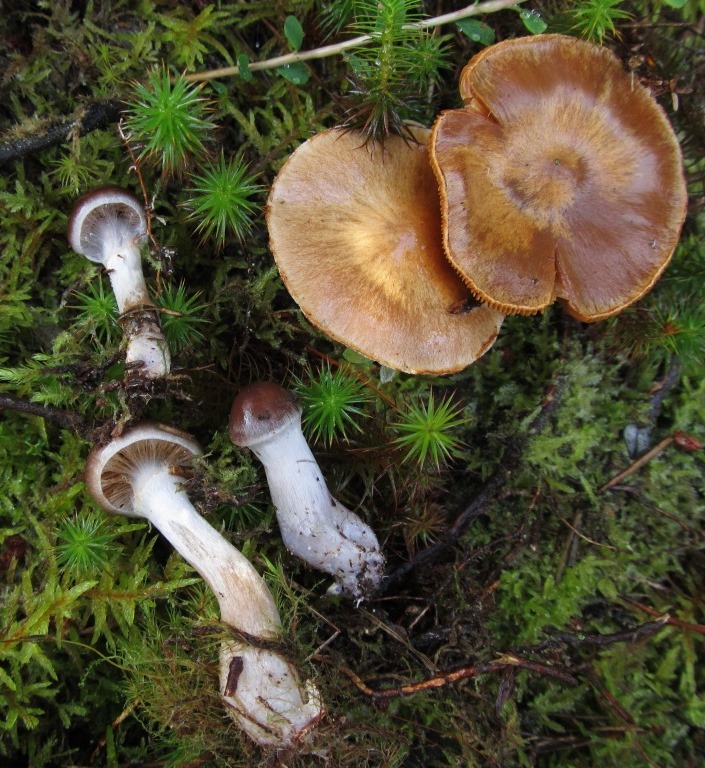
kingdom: Fungi
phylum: Basidiomycota
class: Agaricomycetes
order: Agaricales
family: Cortinariaceae
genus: Cortinarius
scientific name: Cortinarius kauffmanianus
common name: plantage-slørhat
